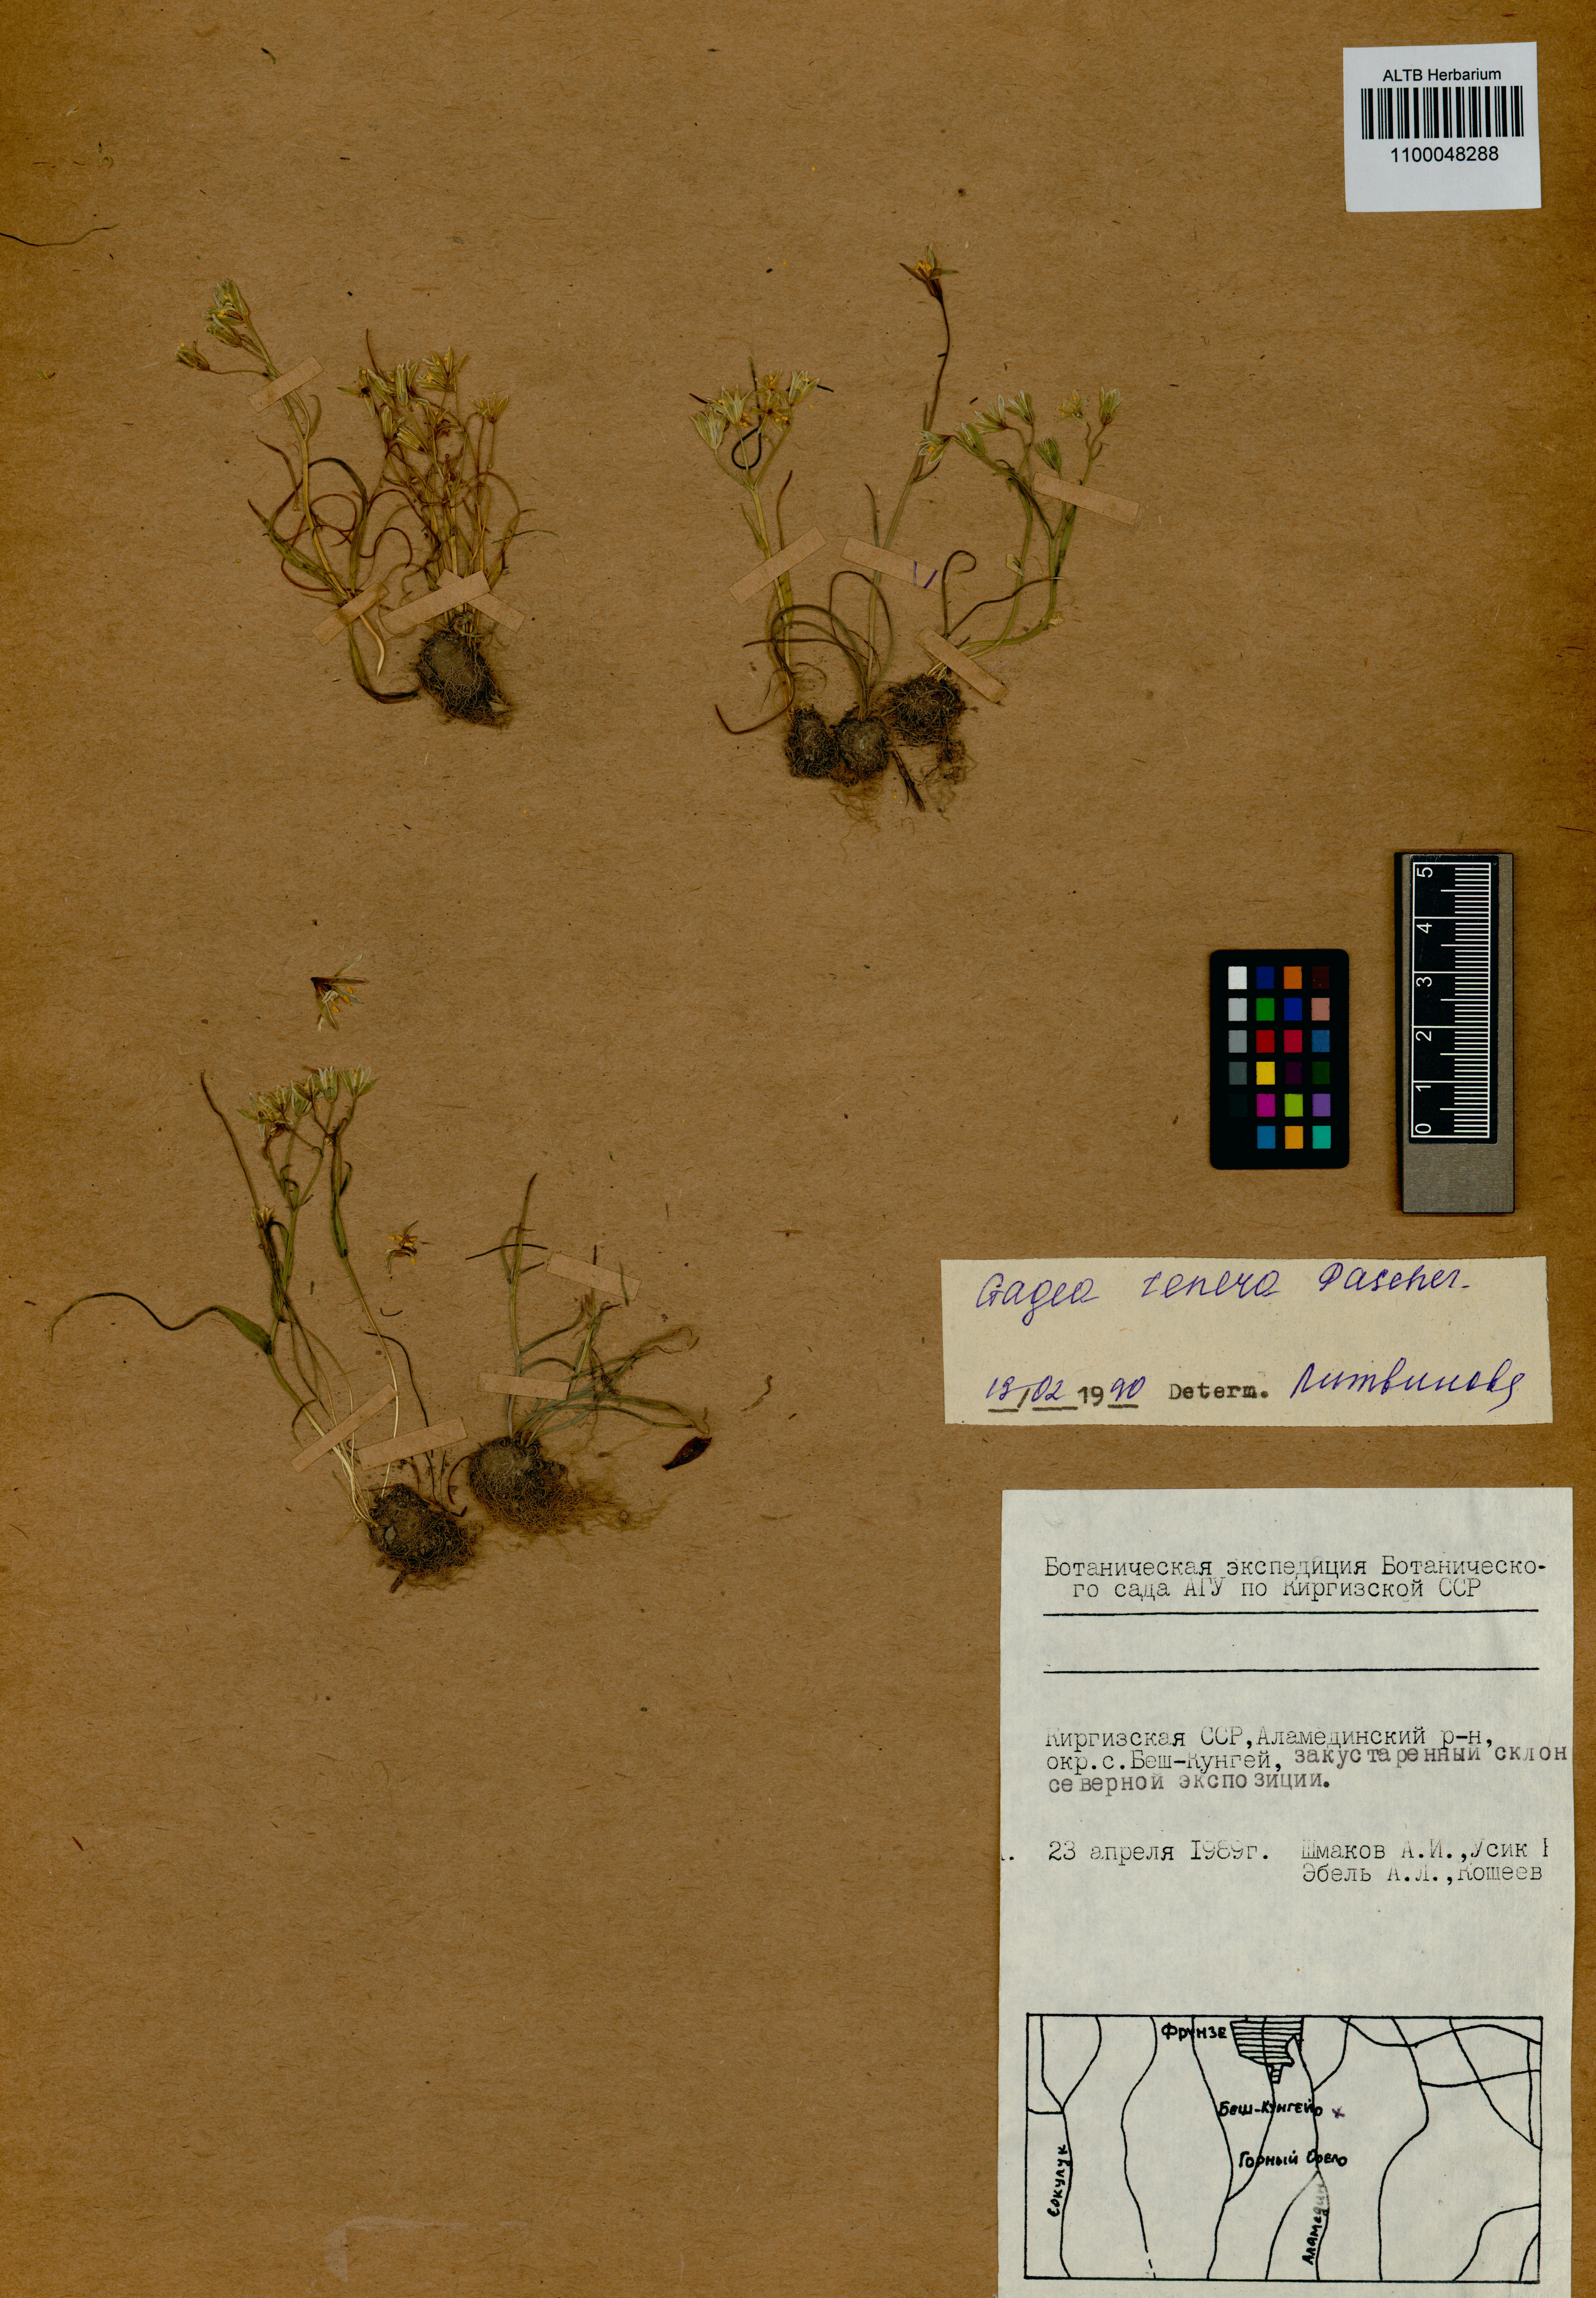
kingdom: Plantae
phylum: Tracheophyta
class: Liliopsida
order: Liliales
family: Liliaceae
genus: Gagea
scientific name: Gagea tenera
